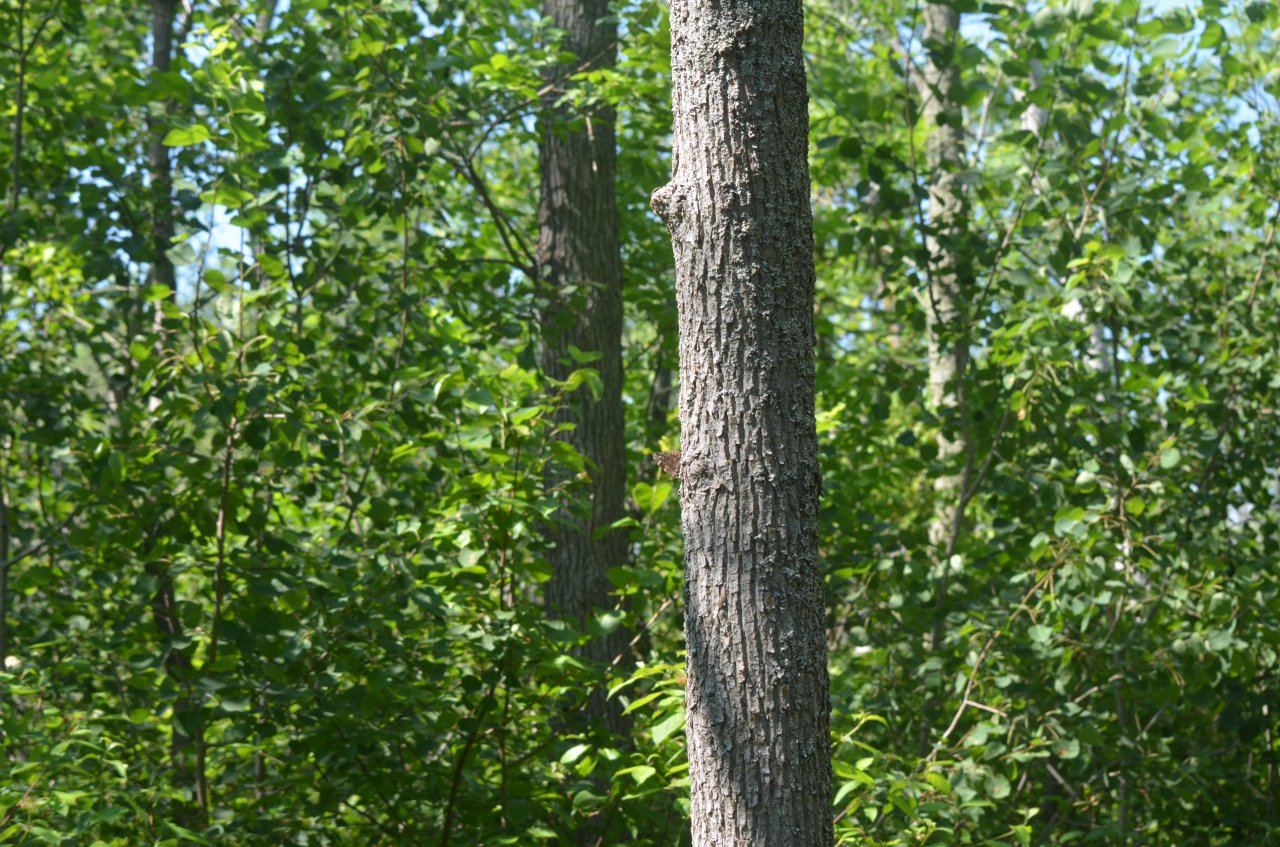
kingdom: Animalia
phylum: Arthropoda
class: Insecta
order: Lepidoptera
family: Nymphalidae
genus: Vanessa
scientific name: Vanessa atalanta
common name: Red Admiral
